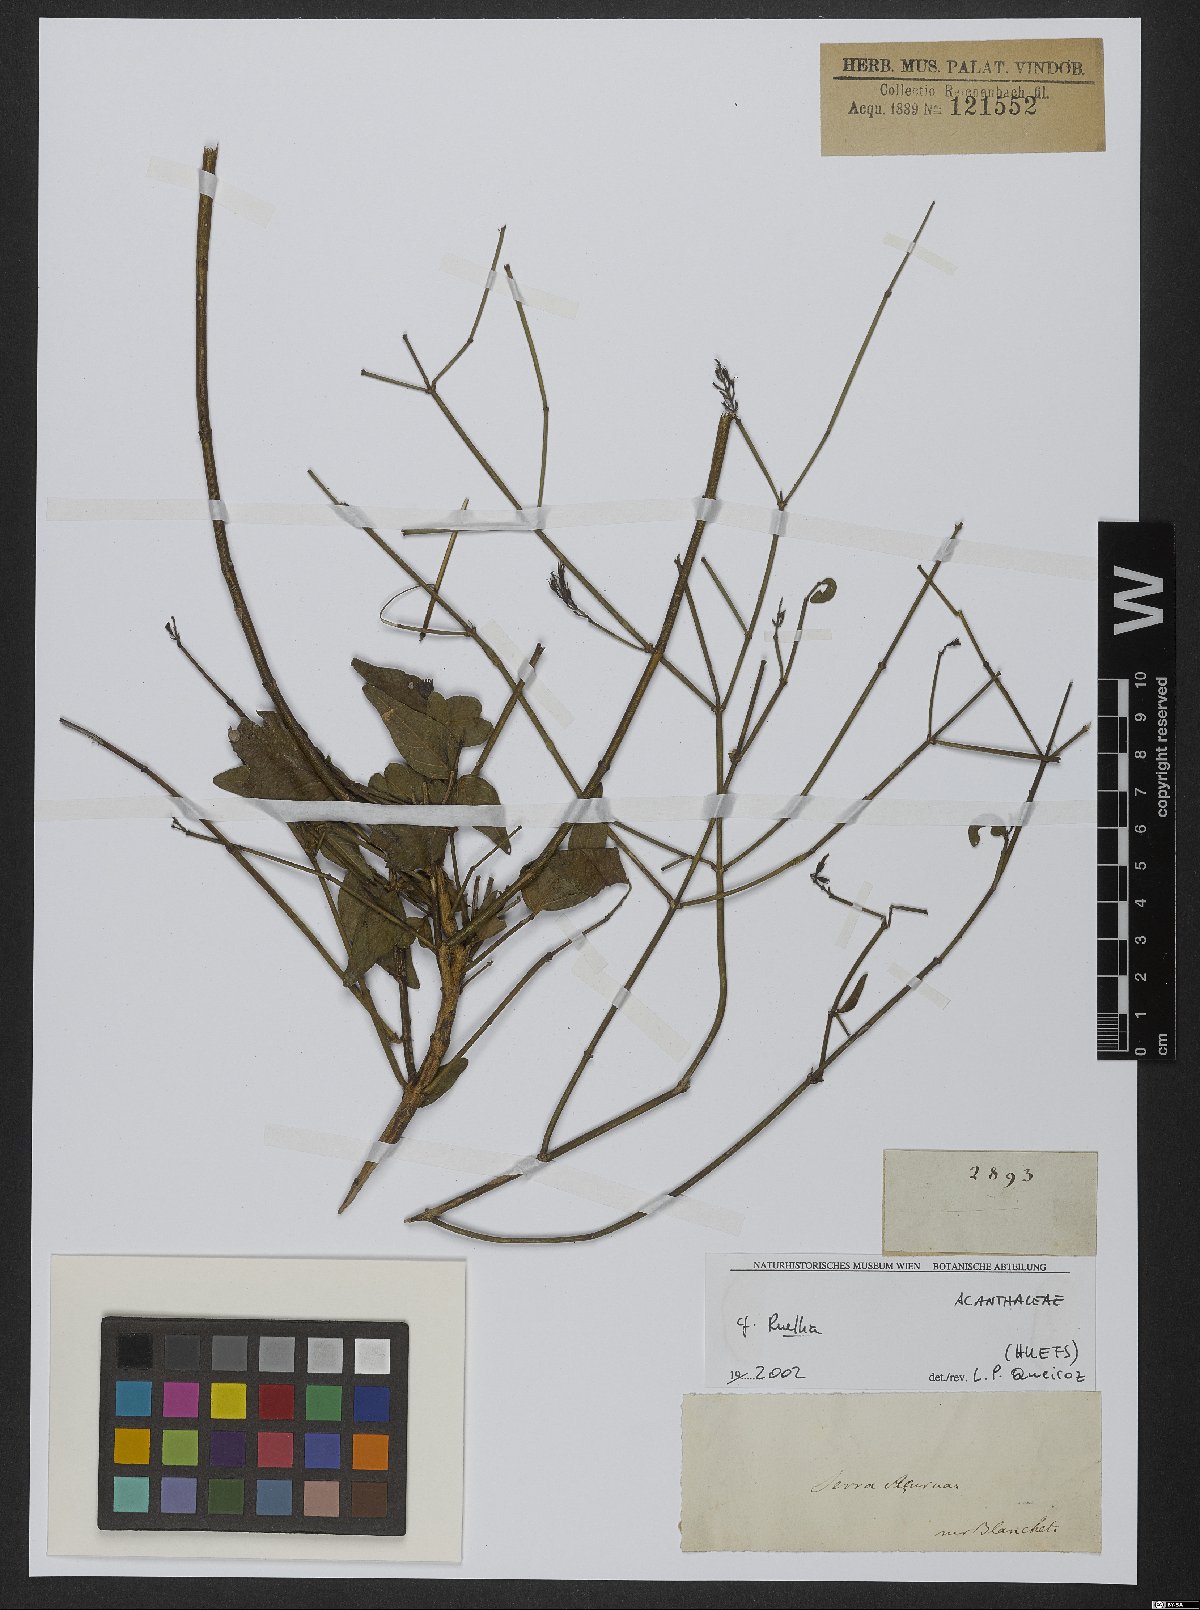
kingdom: Plantae
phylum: Tracheophyta
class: Magnoliopsida
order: Lamiales
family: Acanthaceae
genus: Ruellia
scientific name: Ruellia
